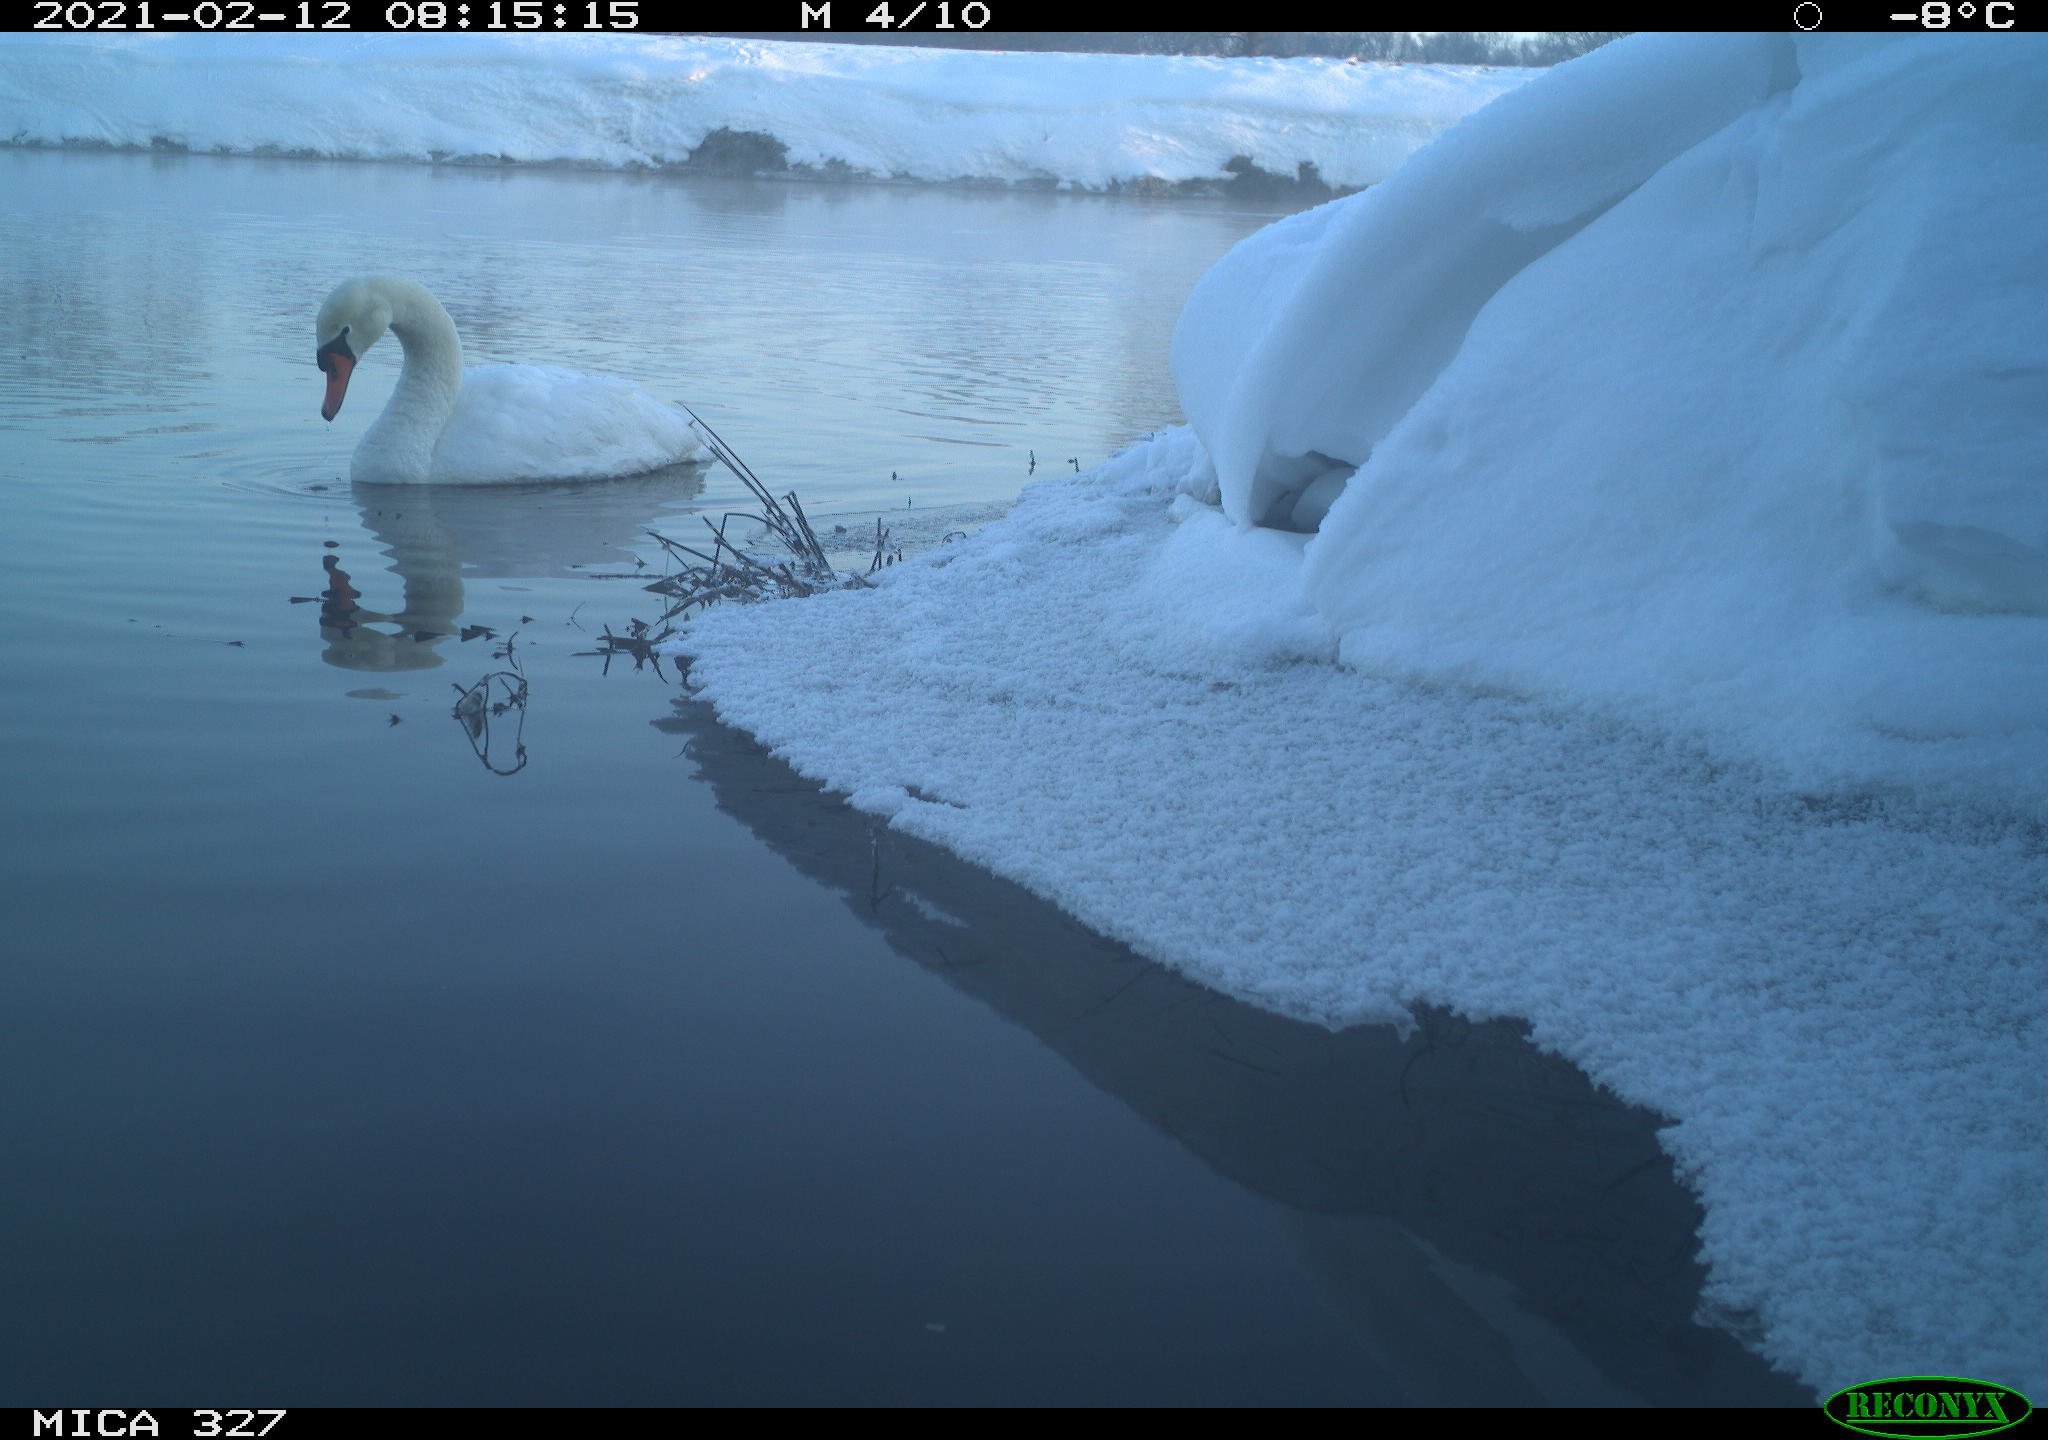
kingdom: Animalia
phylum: Chordata
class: Aves
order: Anseriformes
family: Anatidae
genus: Cygnus
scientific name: Cygnus olor
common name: Mute swan
